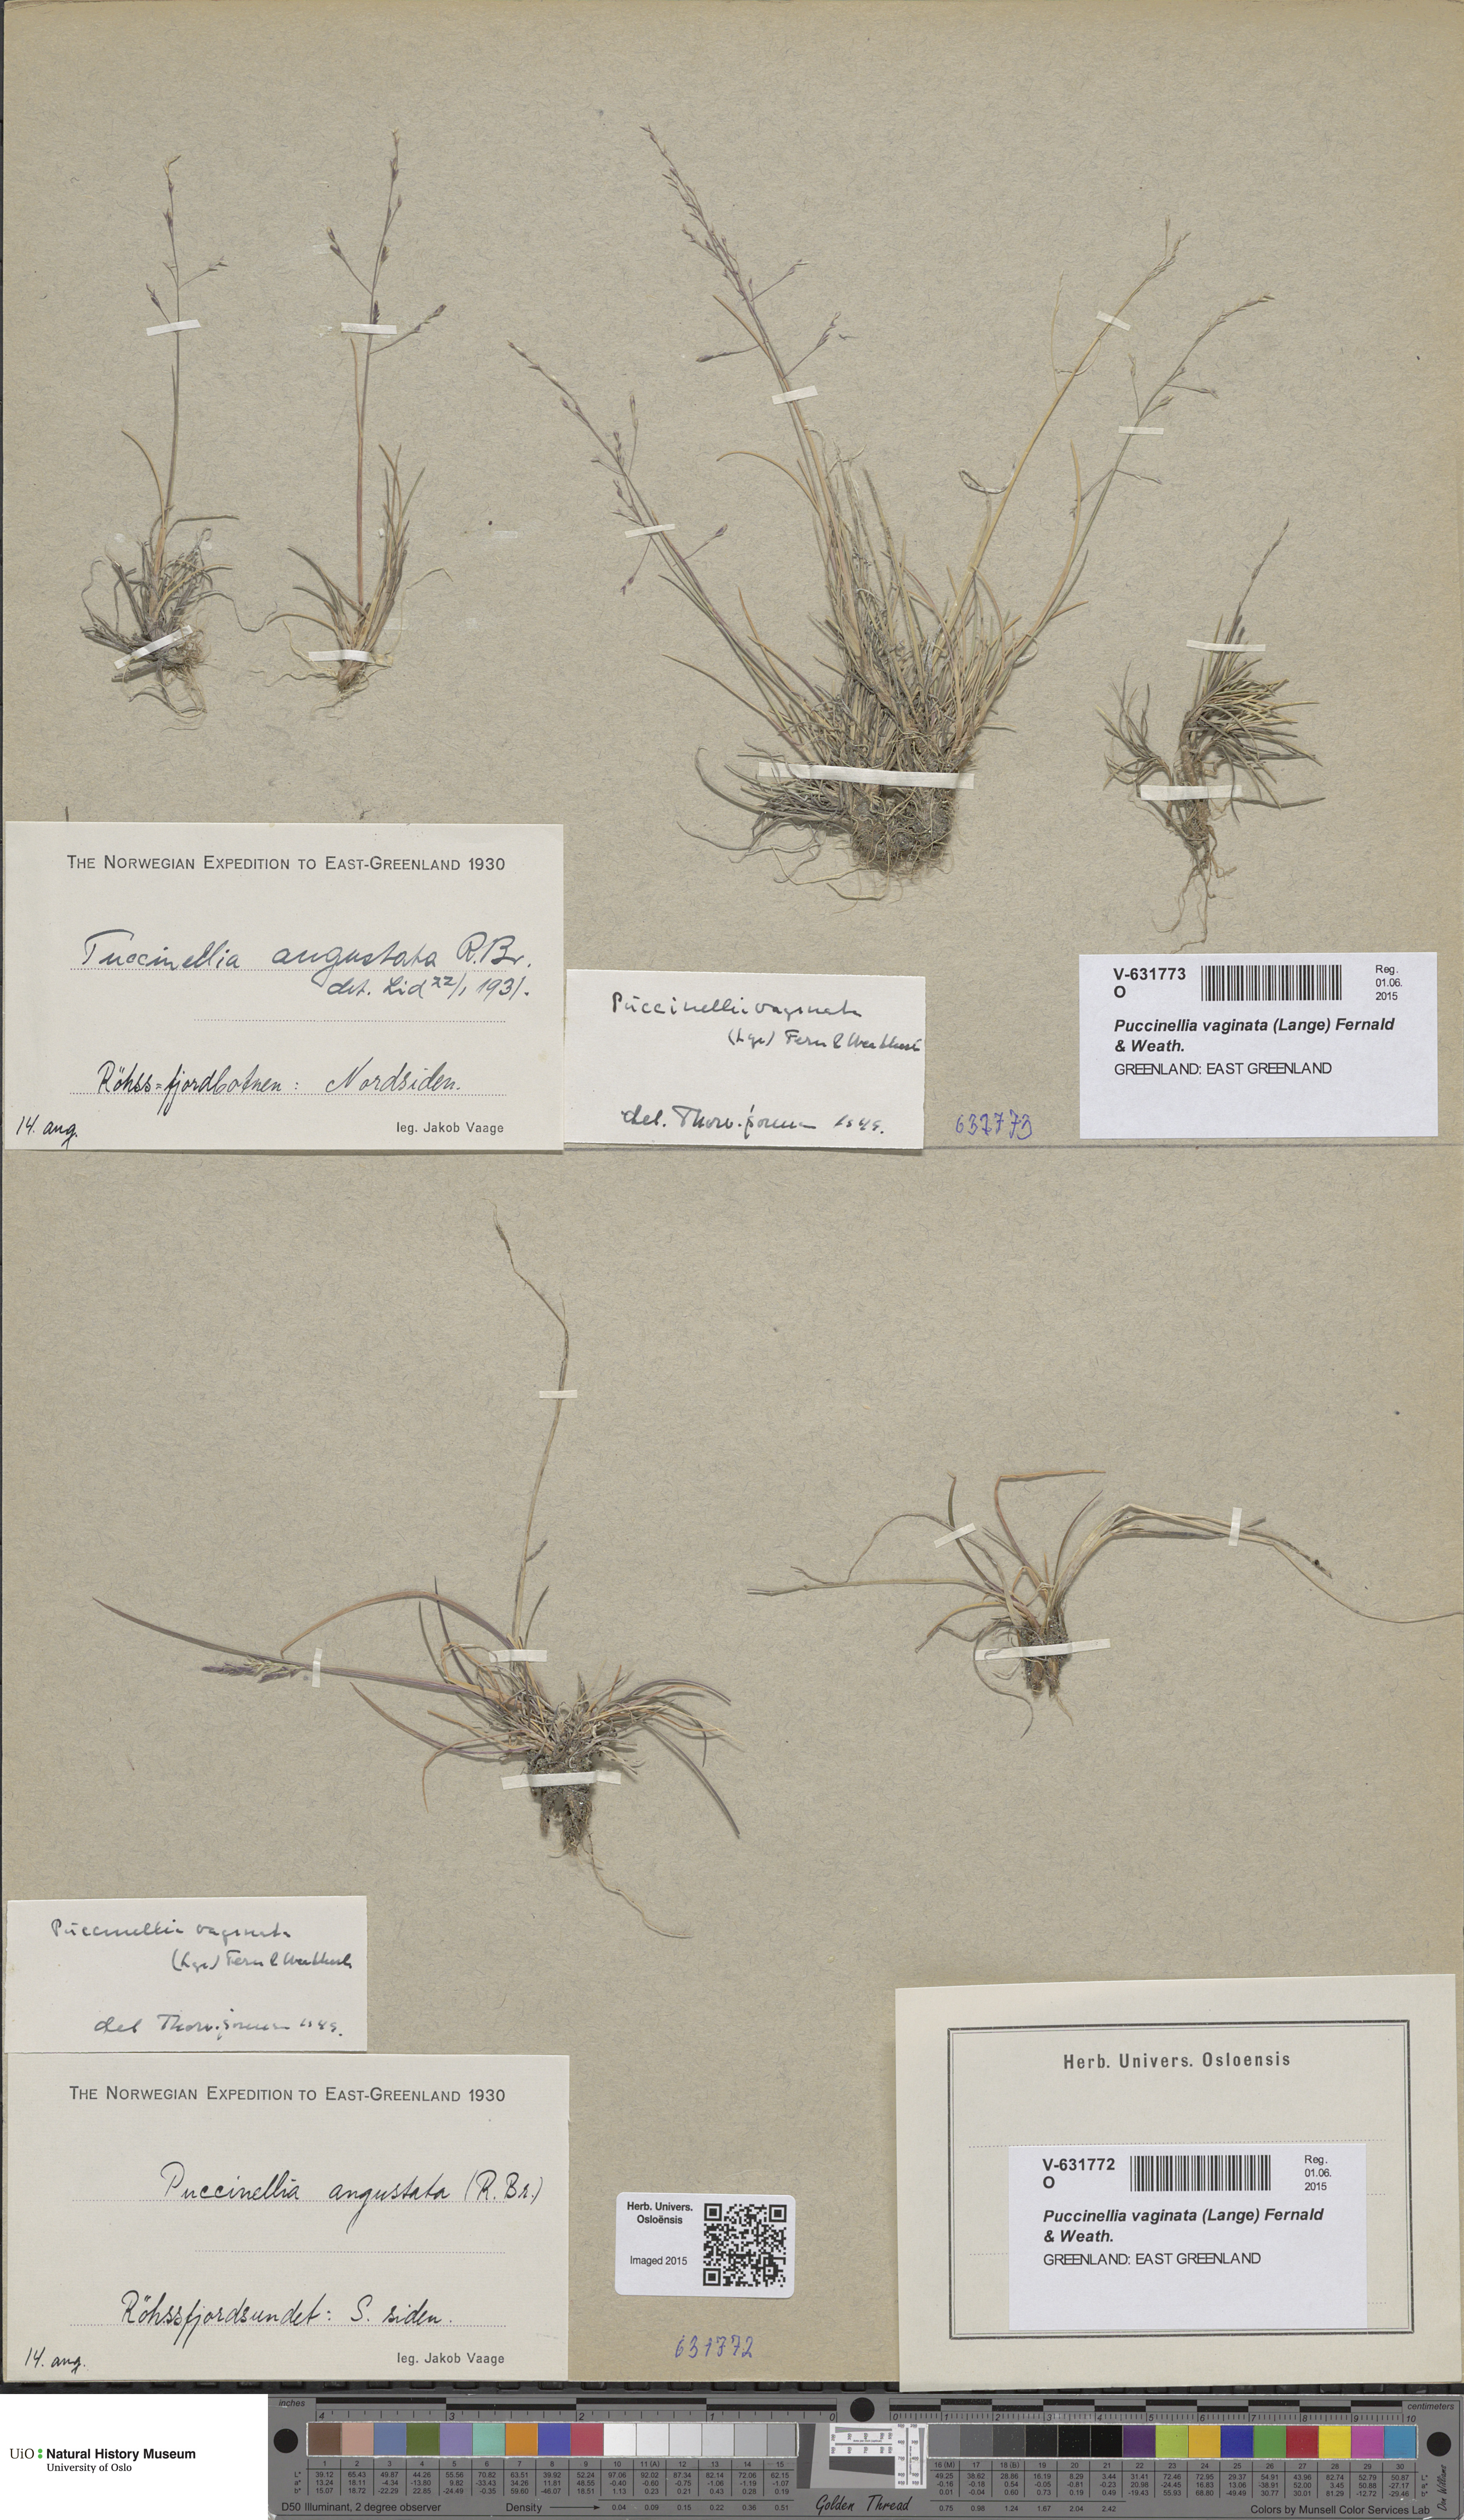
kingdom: Plantae
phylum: Tracheophyta
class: Liliopsida
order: Poales
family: Poaceae
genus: Puccinellia
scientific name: Puccinellia vaginata
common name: Arctic tussock alkaligrass
